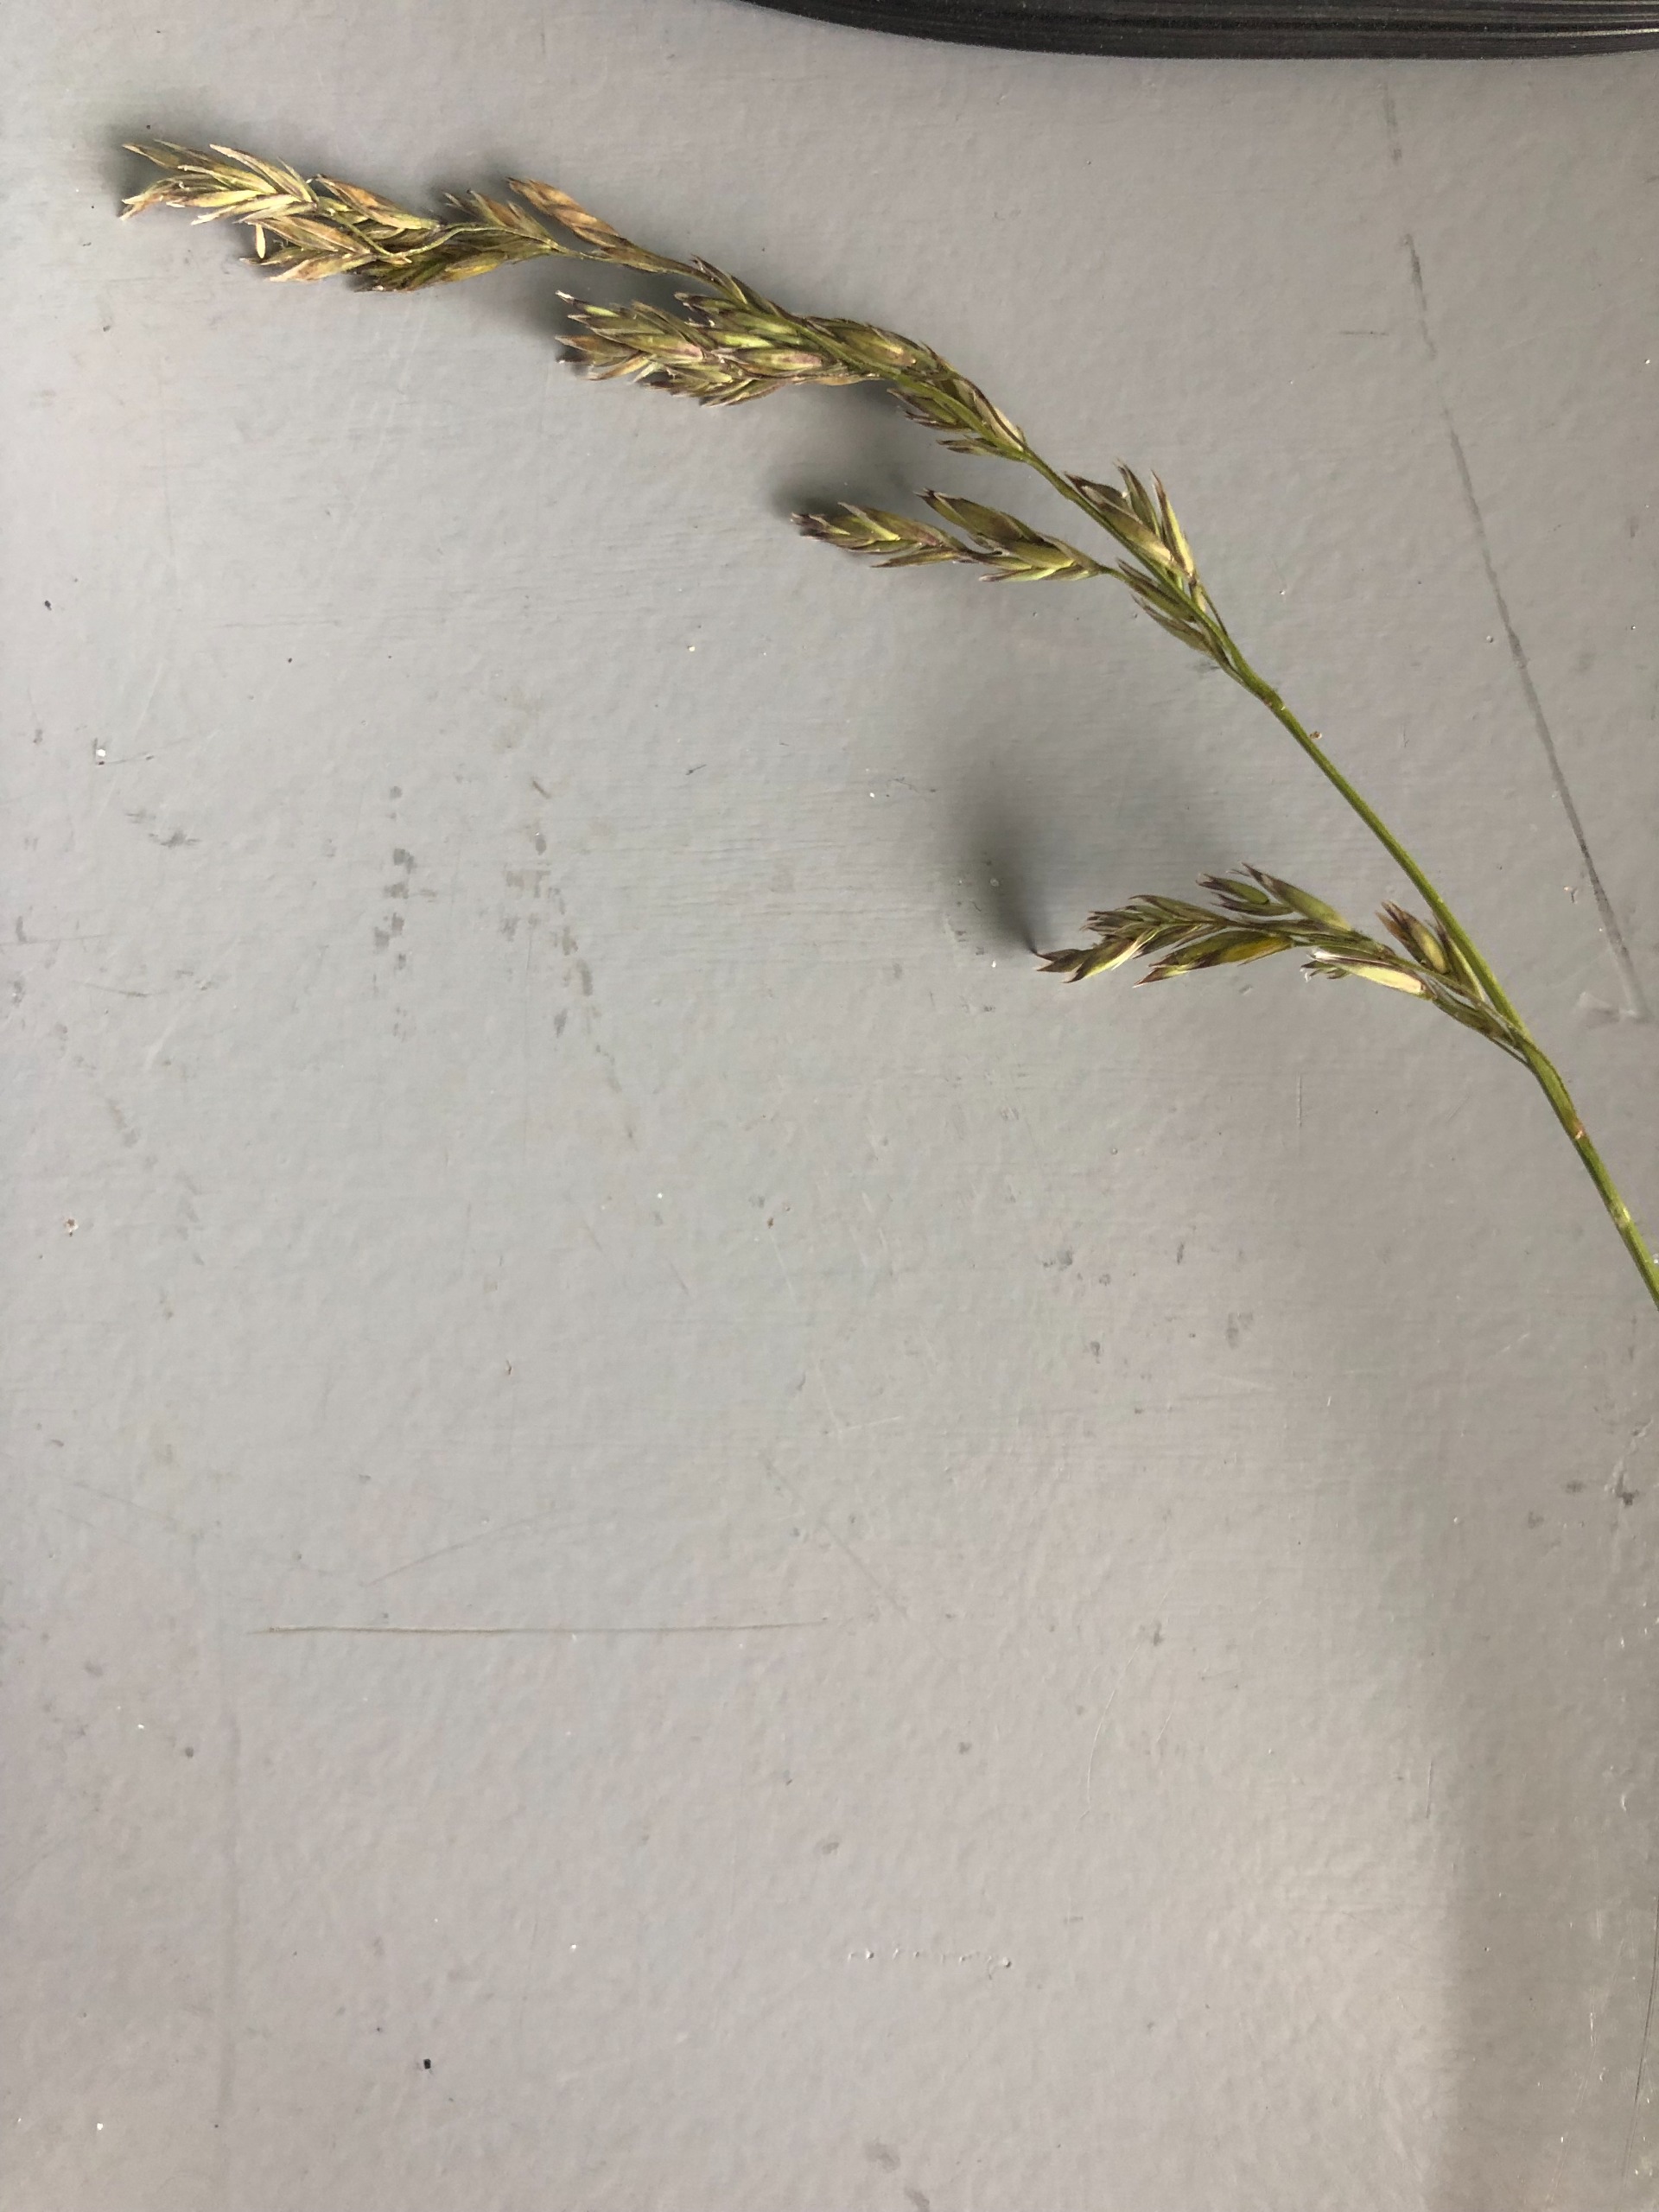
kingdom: Plantae
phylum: Tracheophyta
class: Liliopsida
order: Poales
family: Poaceae
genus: Lolium
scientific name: Lolium pratense
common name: Eng-svingel
